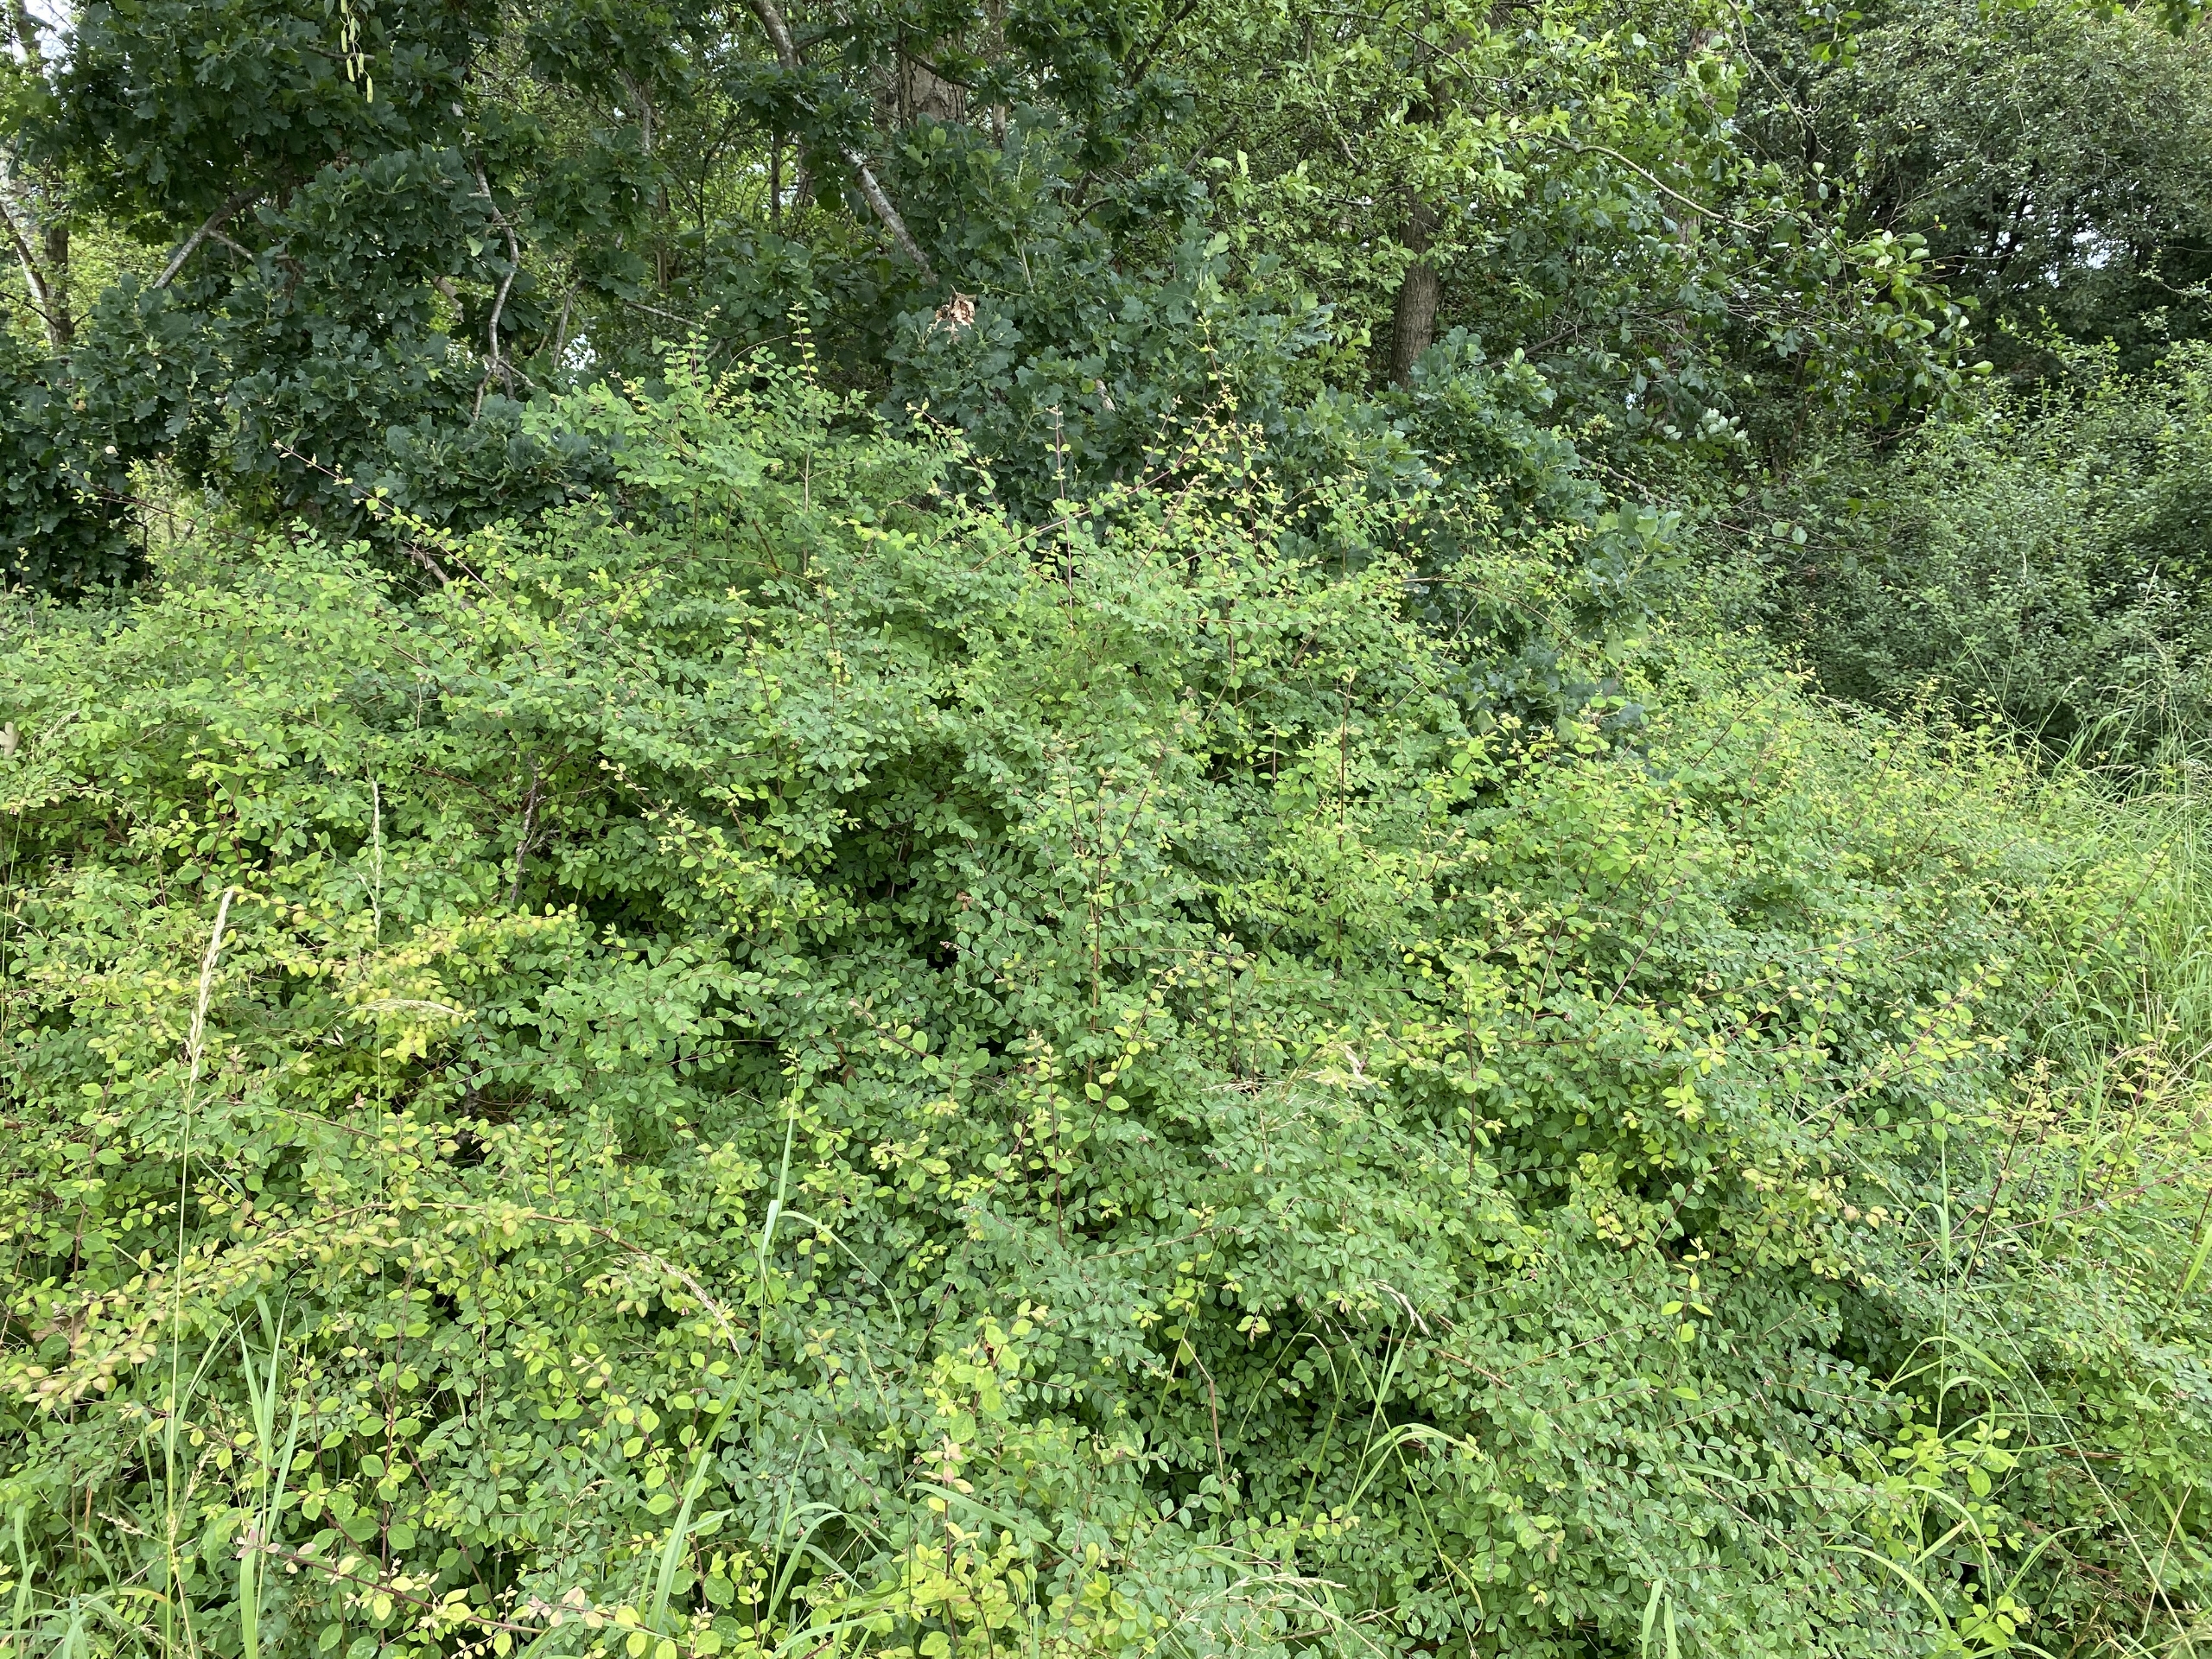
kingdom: Plantae
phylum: Tracheophyta
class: Magnoliopsida
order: Dipsacales
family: Caprifoliaceae
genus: Symphoricarpos
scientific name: Symphoricarpos chenaultii
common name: Rød snebær
